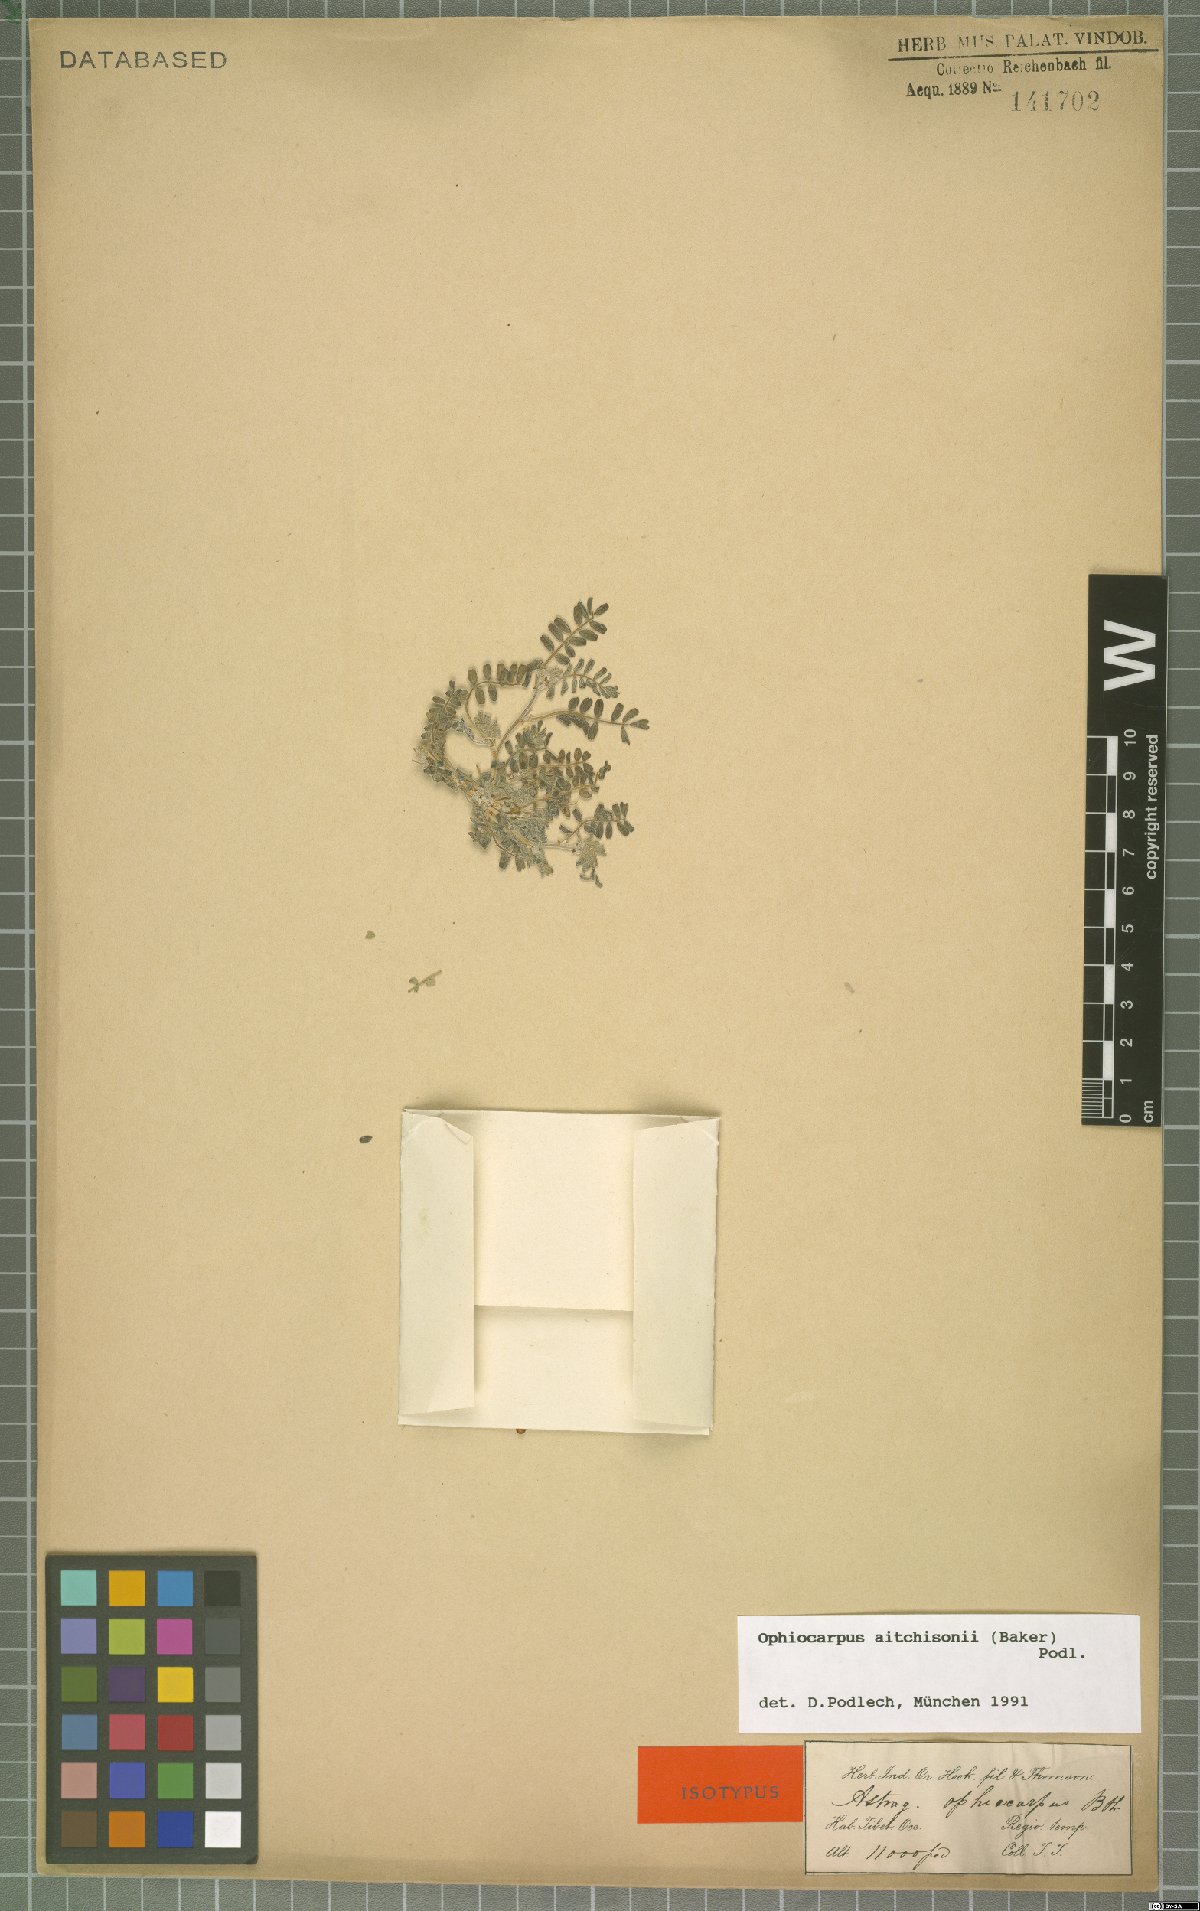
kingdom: Plantae
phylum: Tracheophyta
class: Magnoliopsida
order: Fabales
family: Fabaceae
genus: Astragalus
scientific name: Astragalus ophiocarpus
